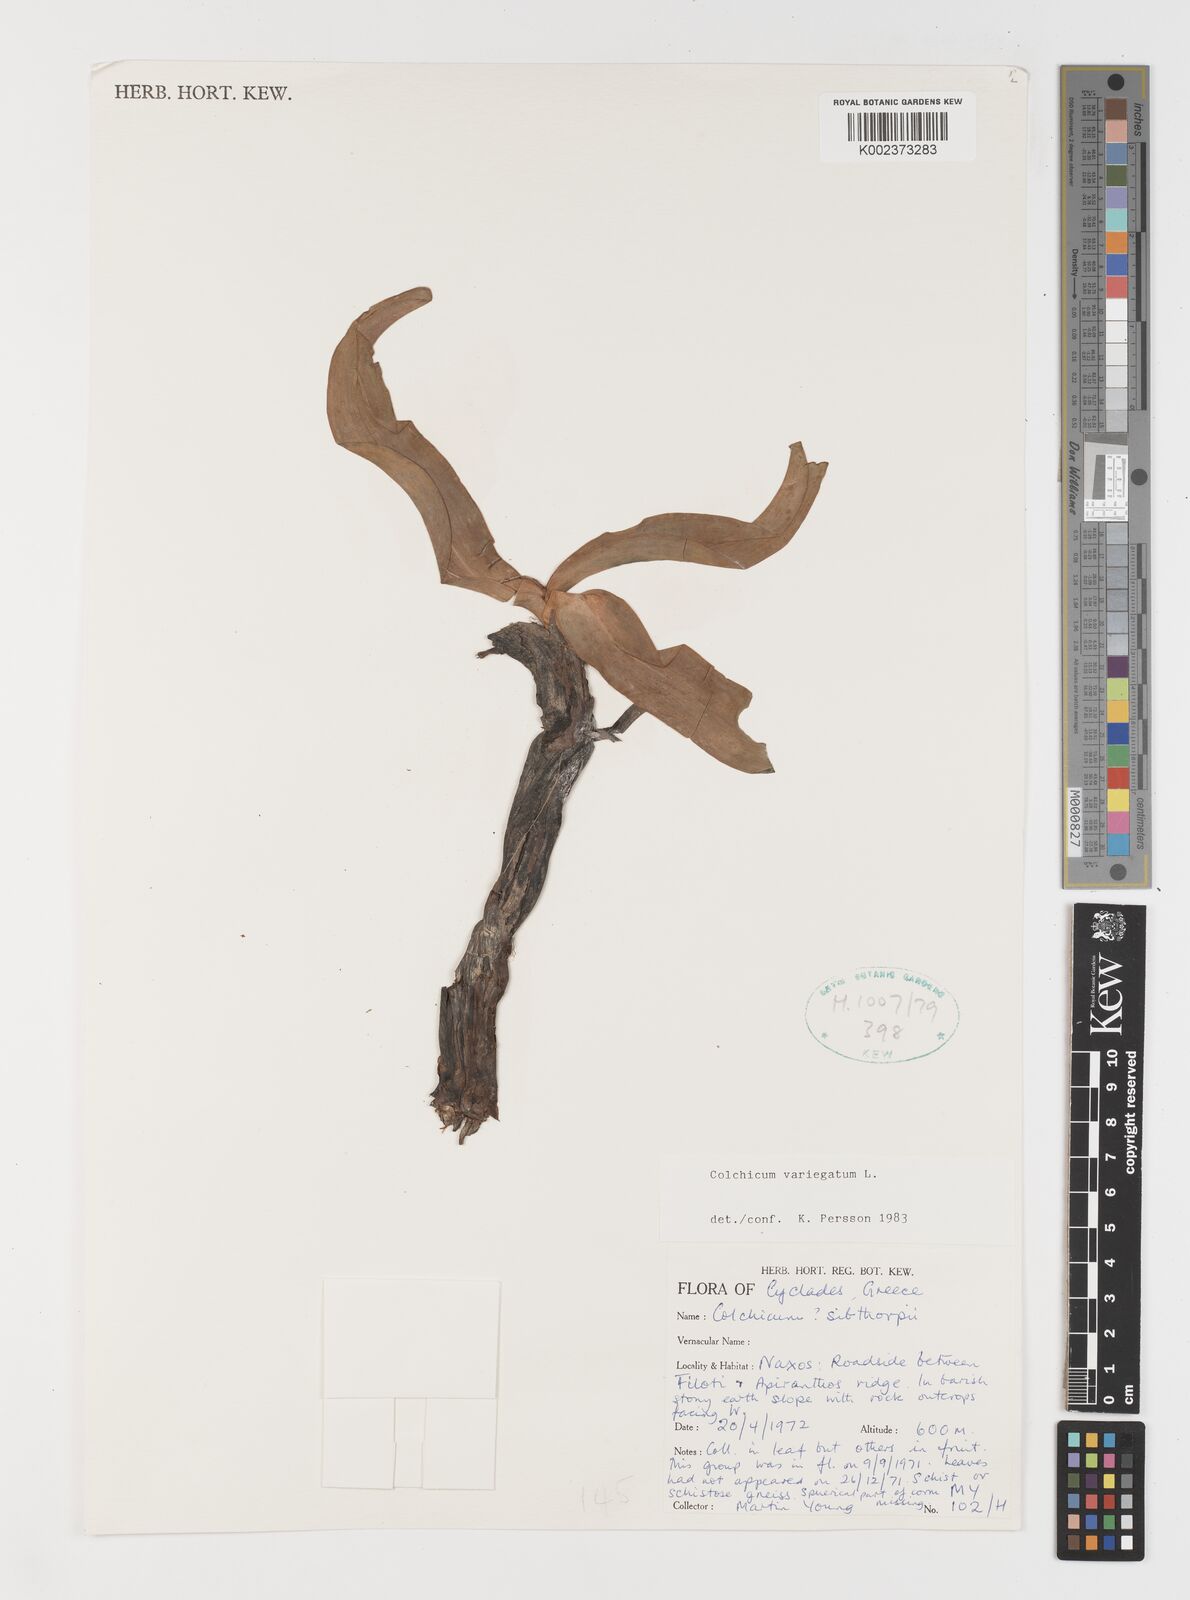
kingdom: Plantae
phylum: Tracheophyta
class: Liliopsida
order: Liliales
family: Colchicaceae
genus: Colchicum
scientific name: Colchicum variegatum
